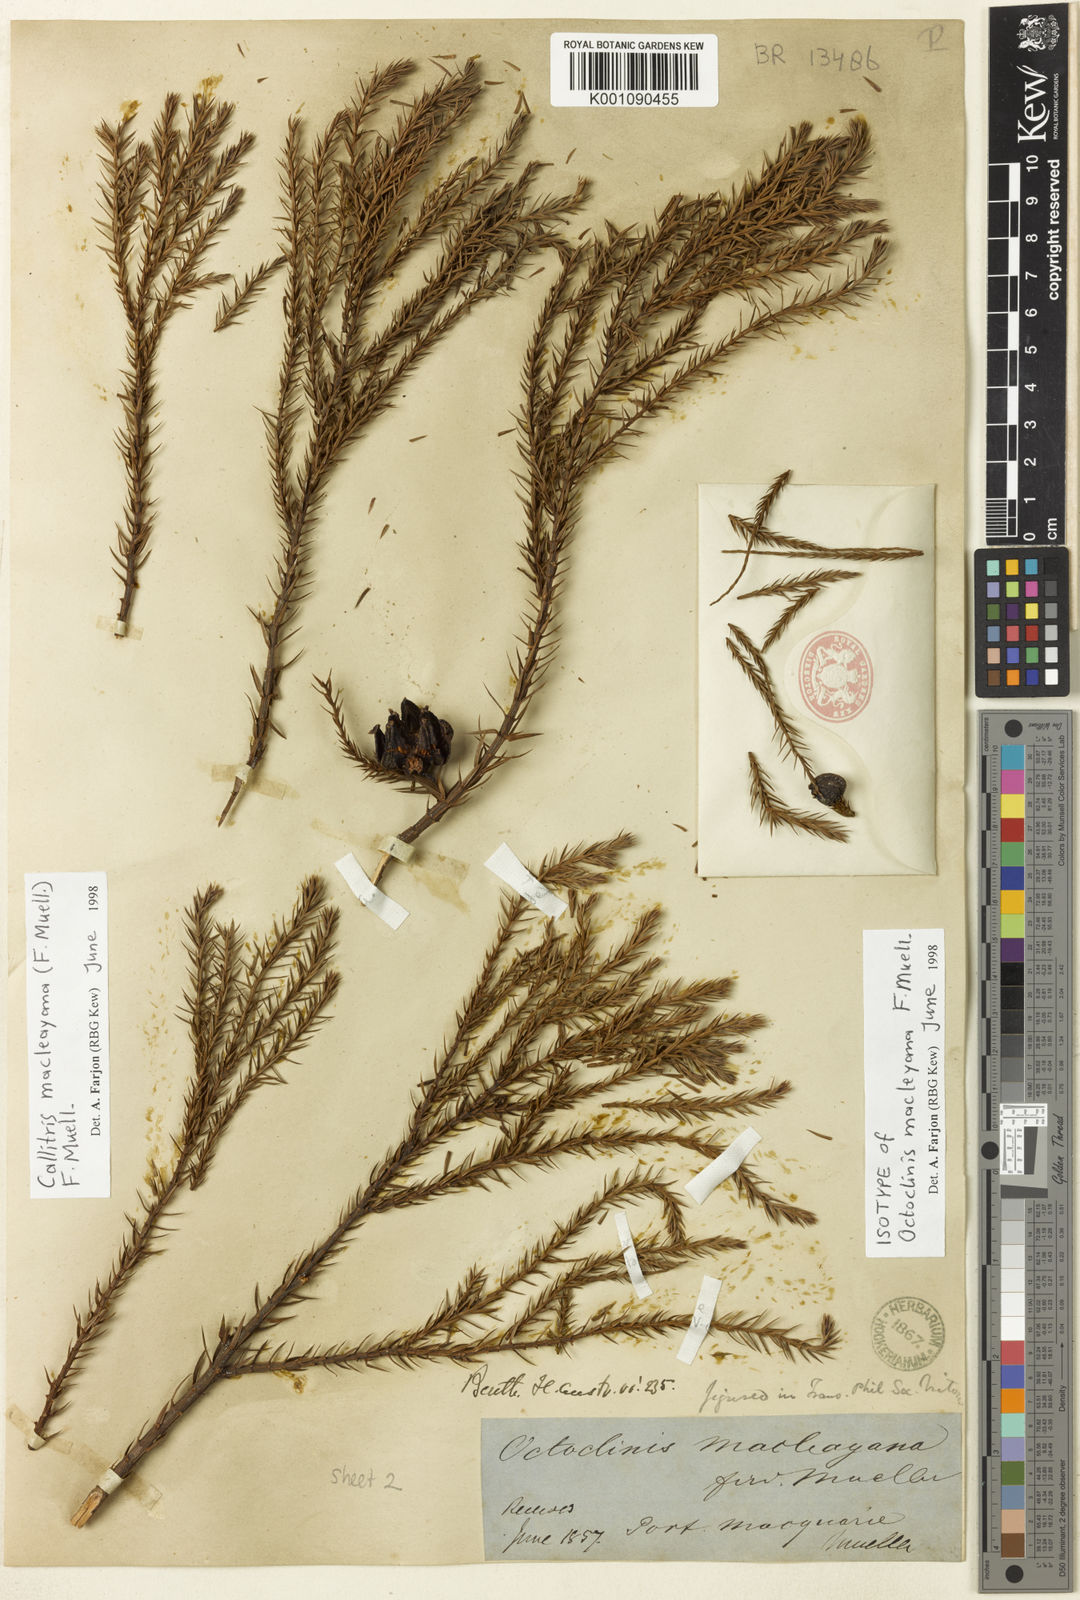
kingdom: Plantae
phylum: Tracheophyta
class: Pinopsida
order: Pinales
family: Cupressaceae
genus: Callitris
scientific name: Callitris macleayana
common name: Brush cypress pine
